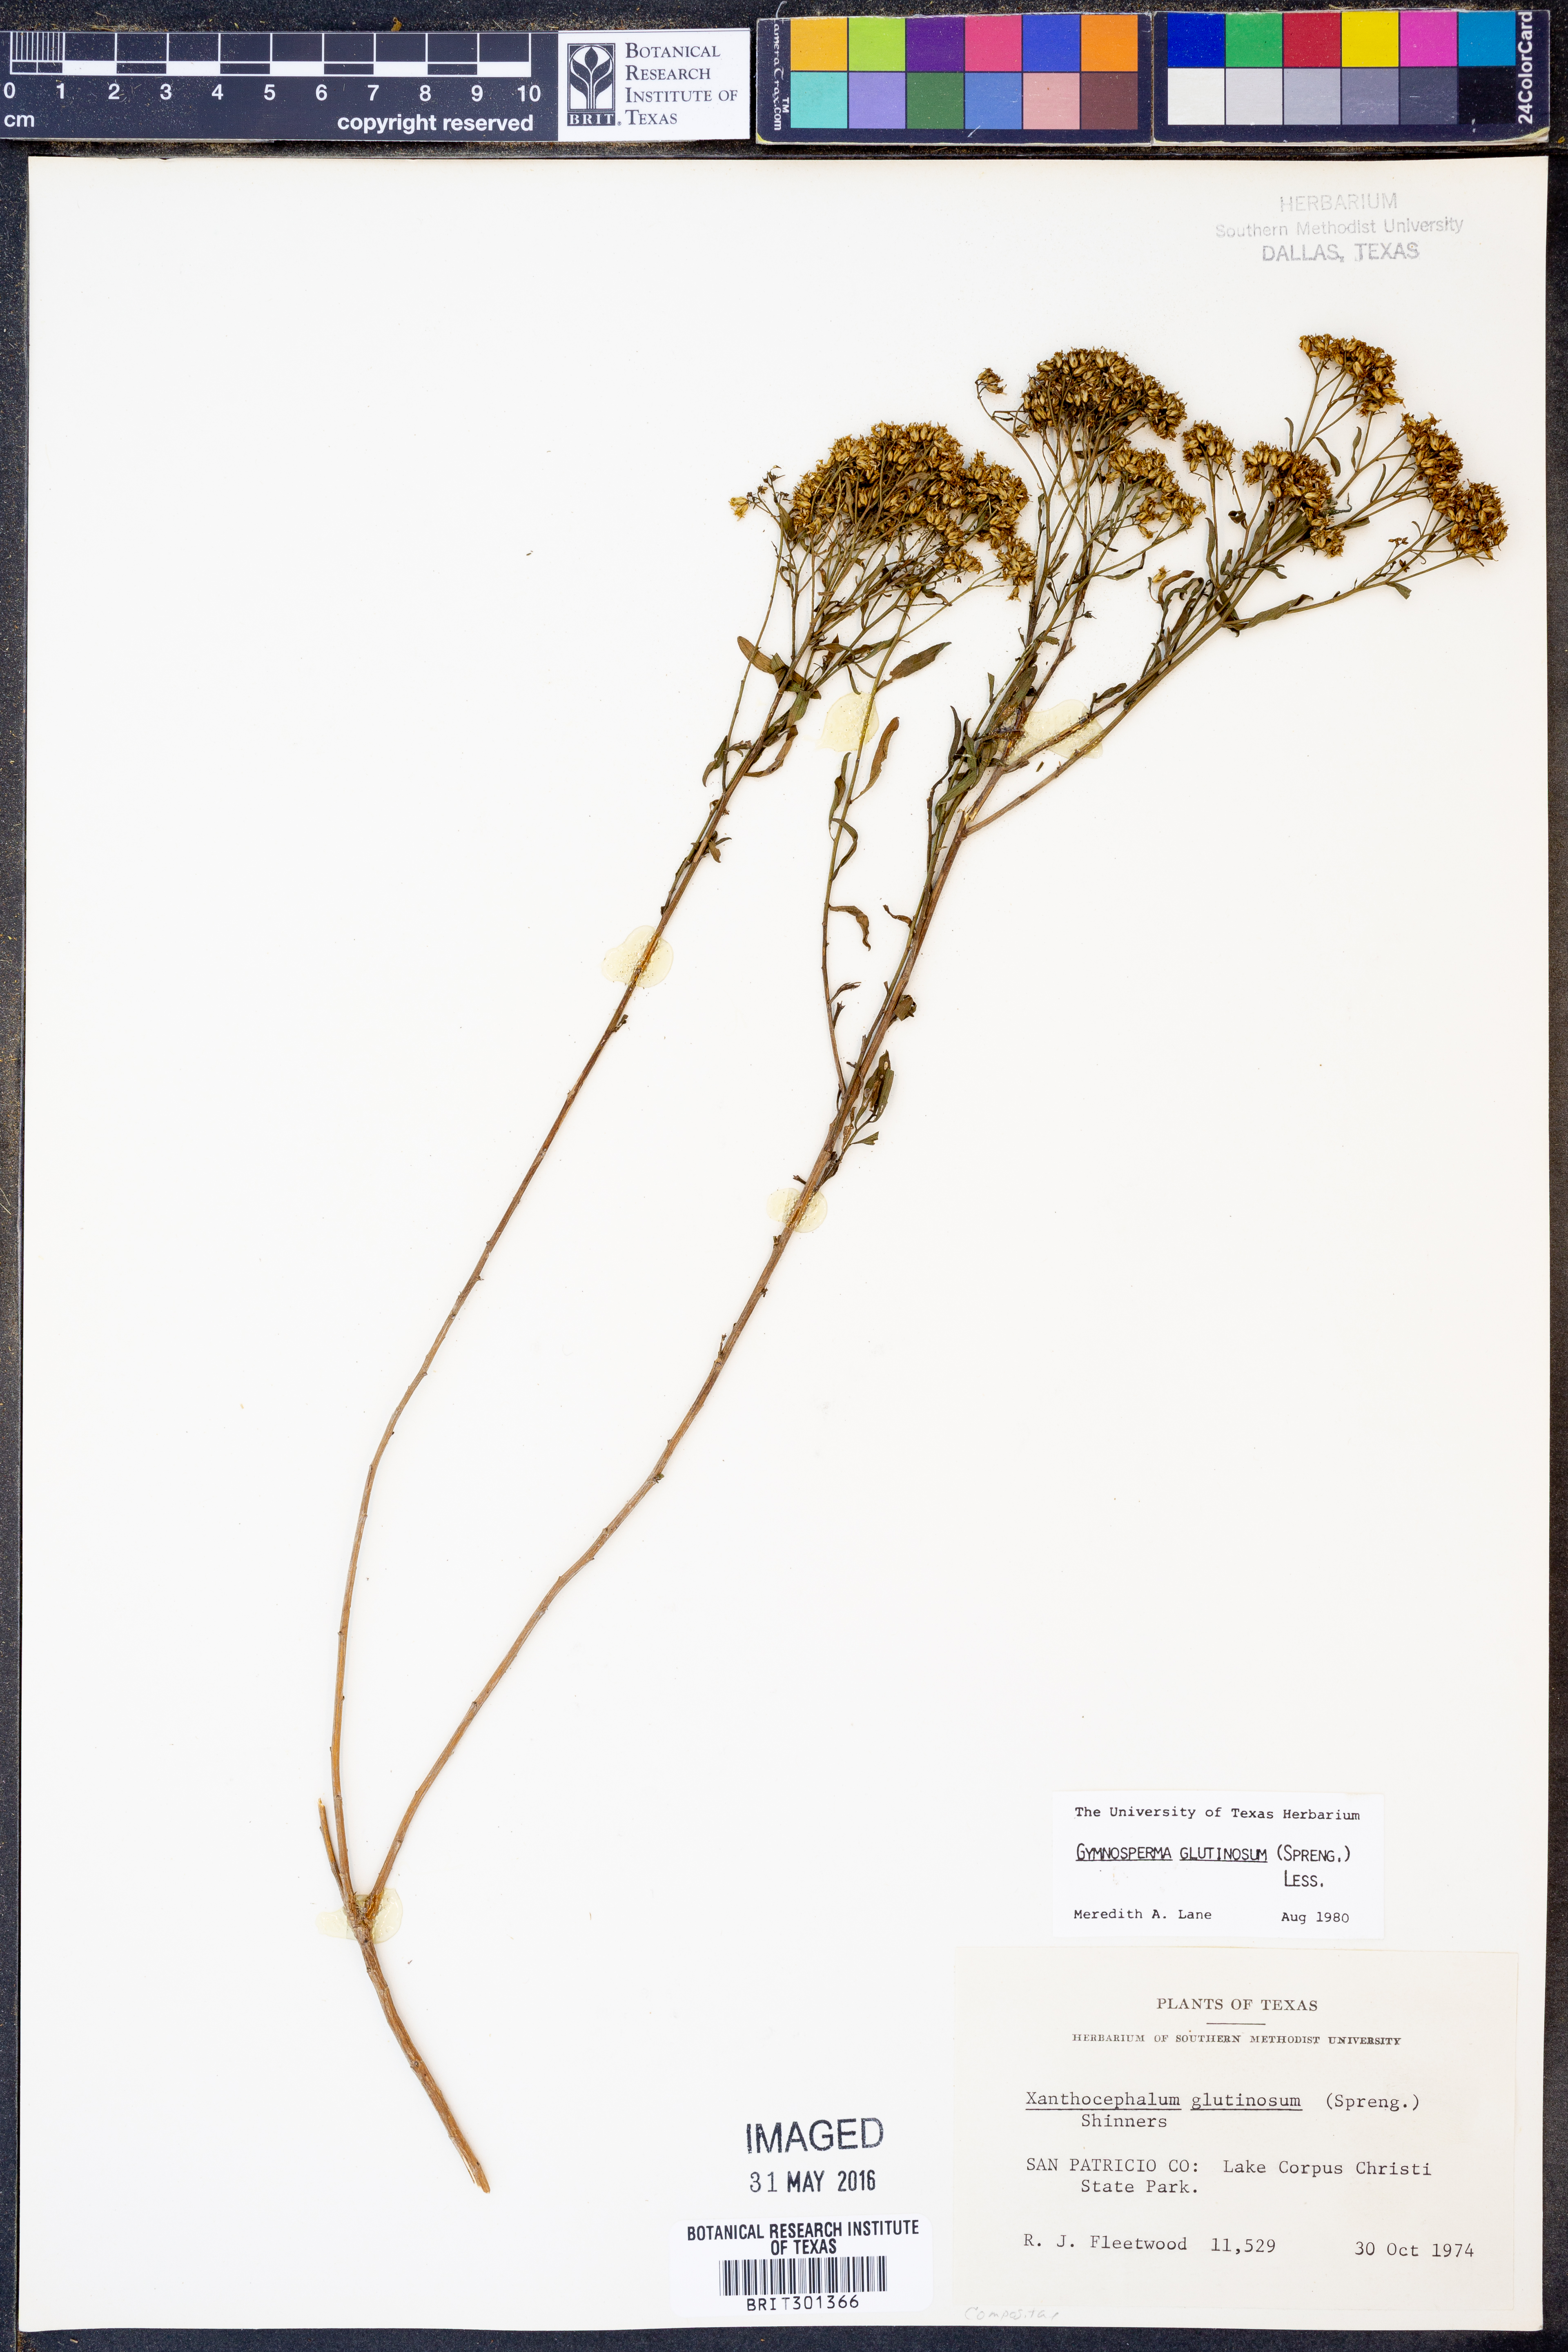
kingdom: Plantae
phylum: Tracheophyta
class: Magnoliopsida
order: Asterales
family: Asteraceae
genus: Gymnosperma
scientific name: Gymnosperma glutinosum
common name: Gumhead
